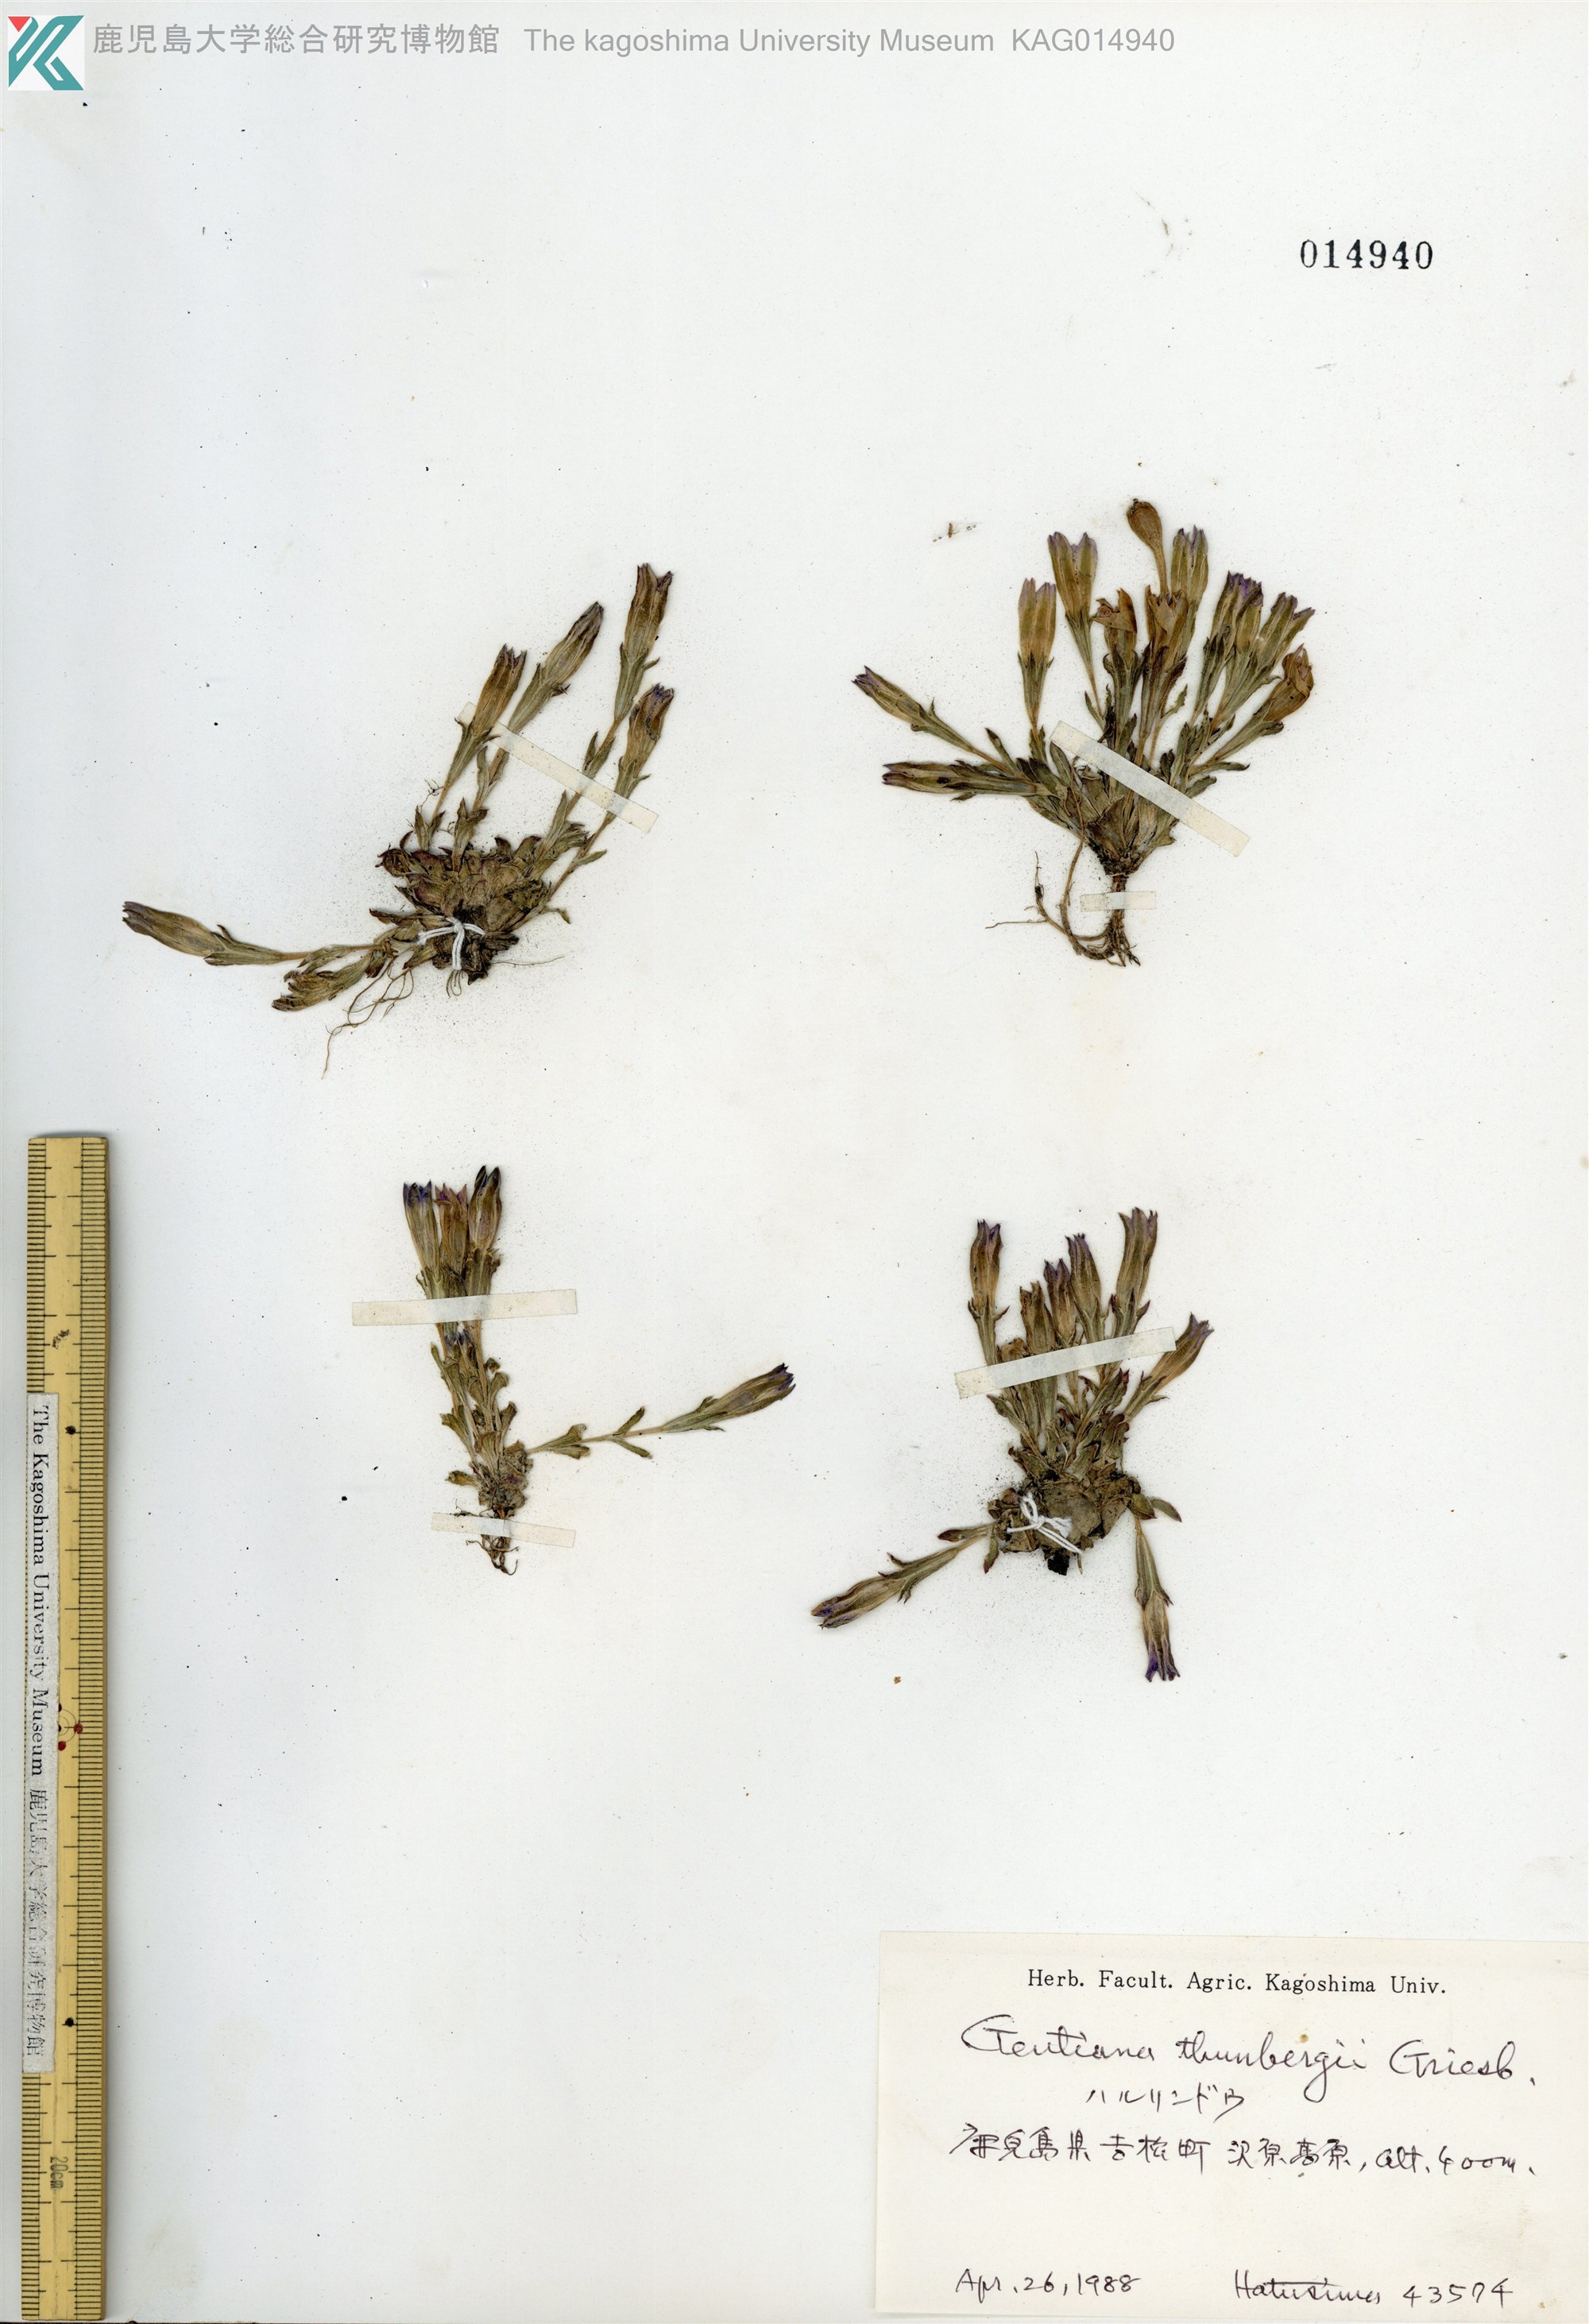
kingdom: Plantae
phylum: Tracheophyta
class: Magnoliopsida
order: Gentianales
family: Gentianaceae
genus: Gentiana
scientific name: Gentiana thunbergii
